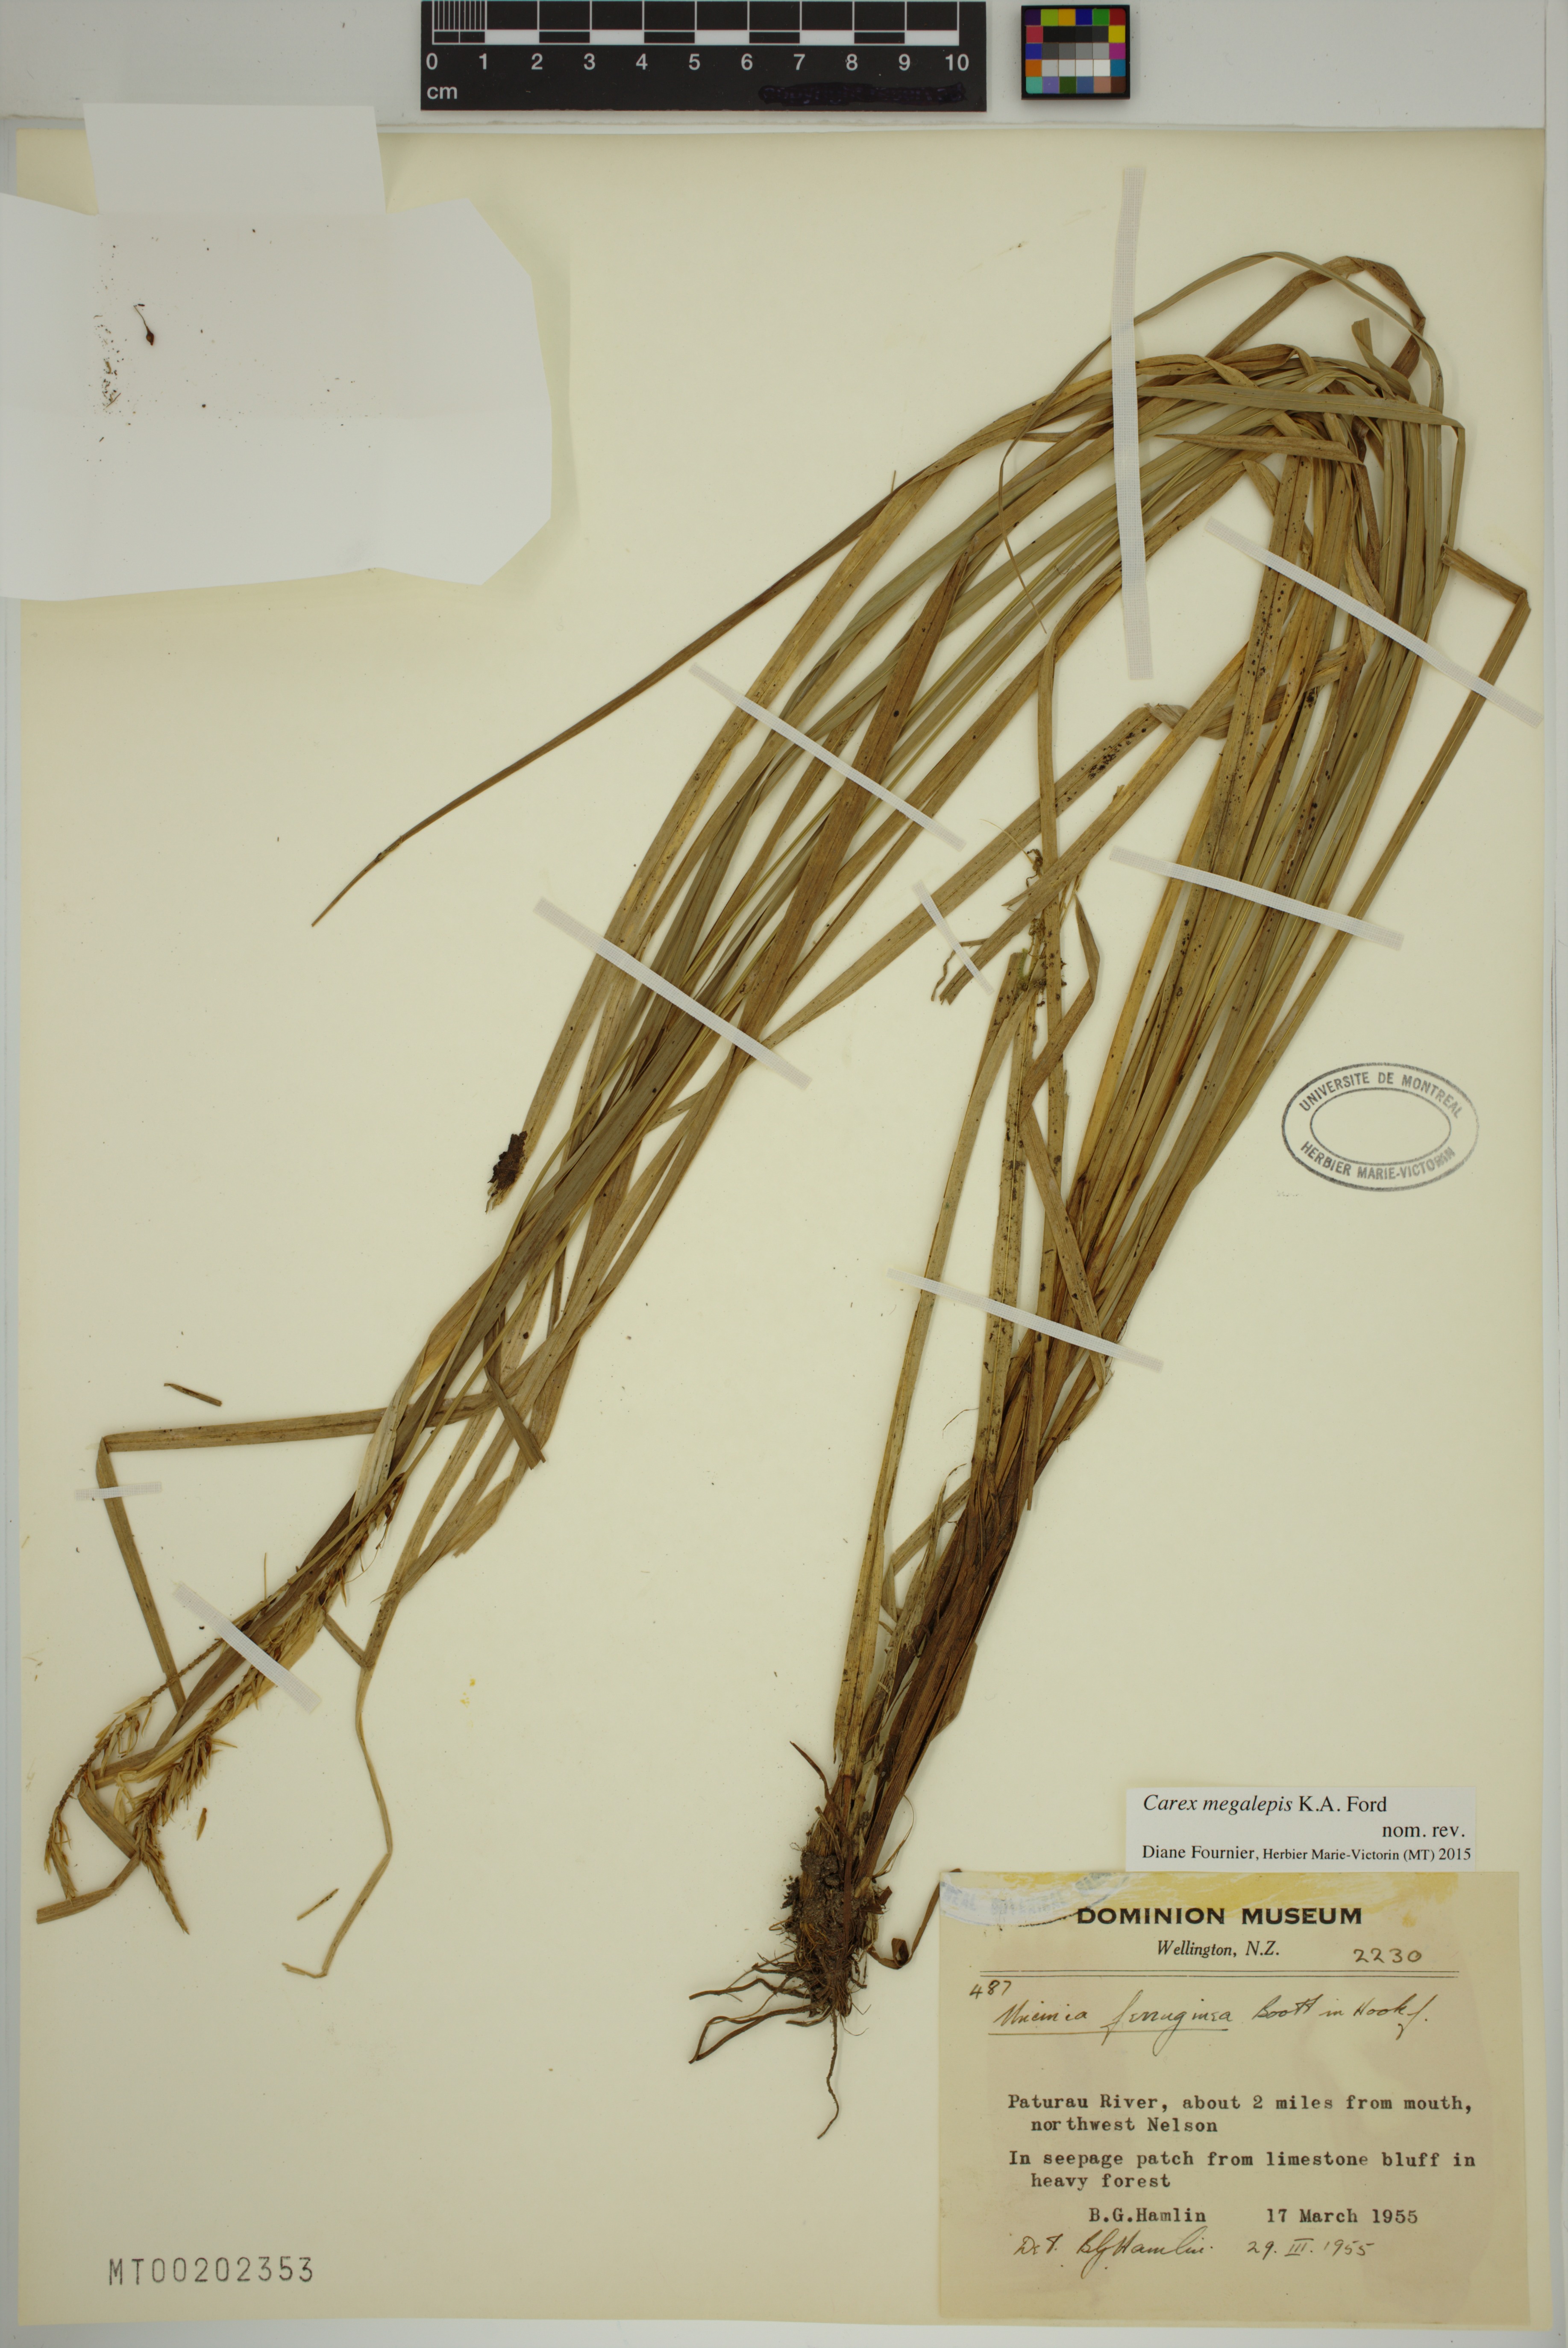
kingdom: Plantae
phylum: Tracheophyta
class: Liliopsida
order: Poales
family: Cyperaceae
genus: Carex
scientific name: Carex megalepis
